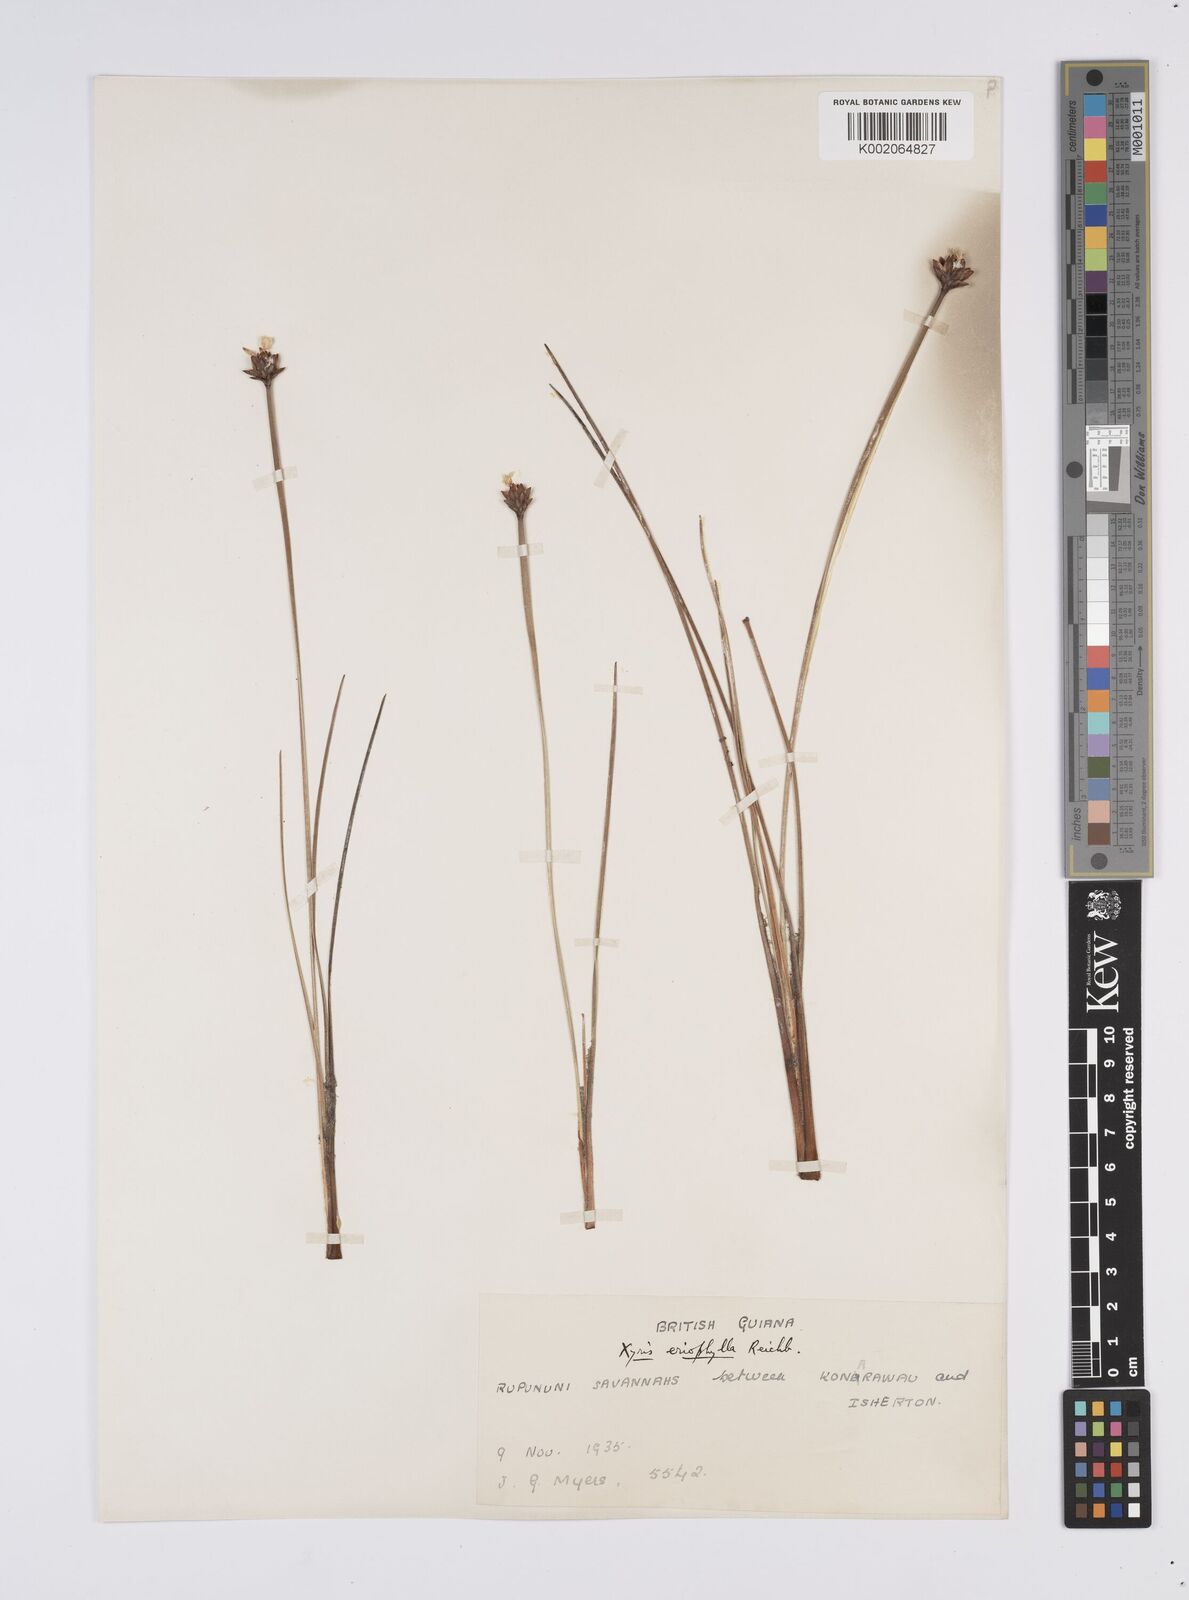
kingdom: Plantae
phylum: Tracheophyta
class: Liliopsida
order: Poales
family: Xyridaceae
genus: Xyris
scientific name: Xyris surinamensis
